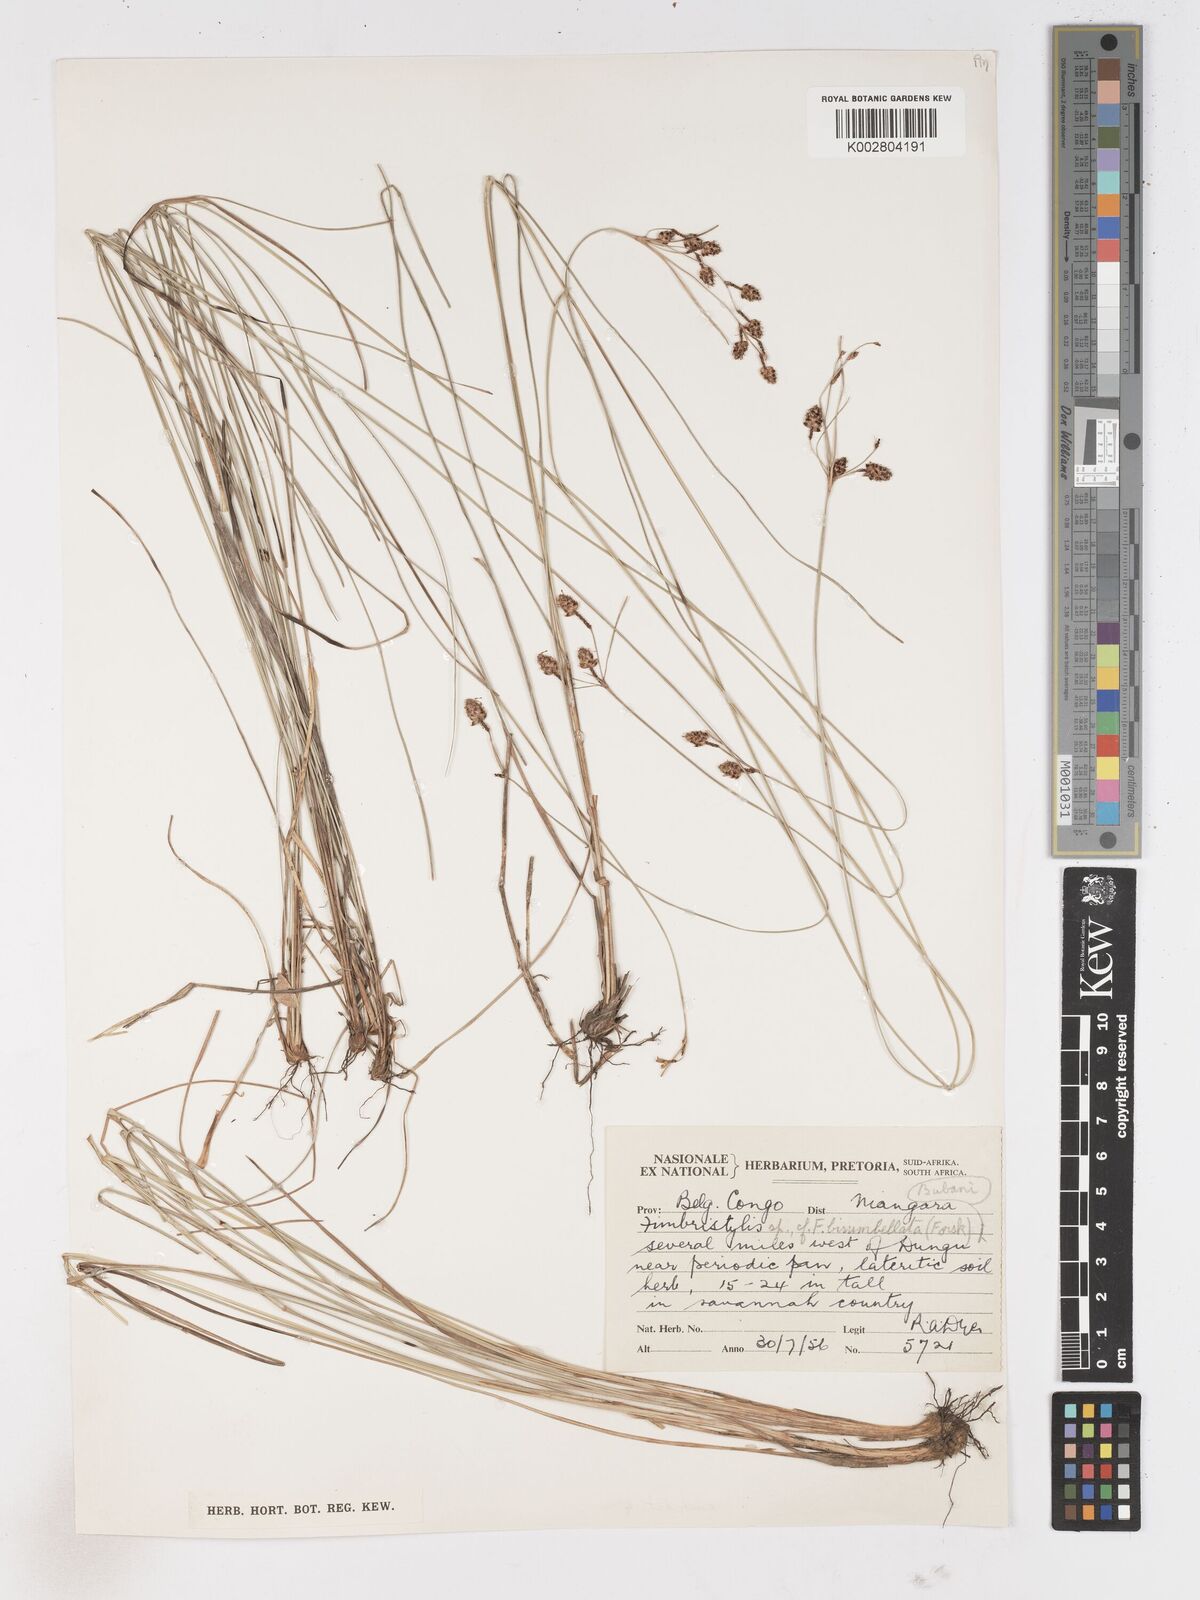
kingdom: Plantae
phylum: Tracheophyta
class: Liliopsida
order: Poales
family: Cyperaceae
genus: Fimbristylis
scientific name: Fimbristylis pilosa
